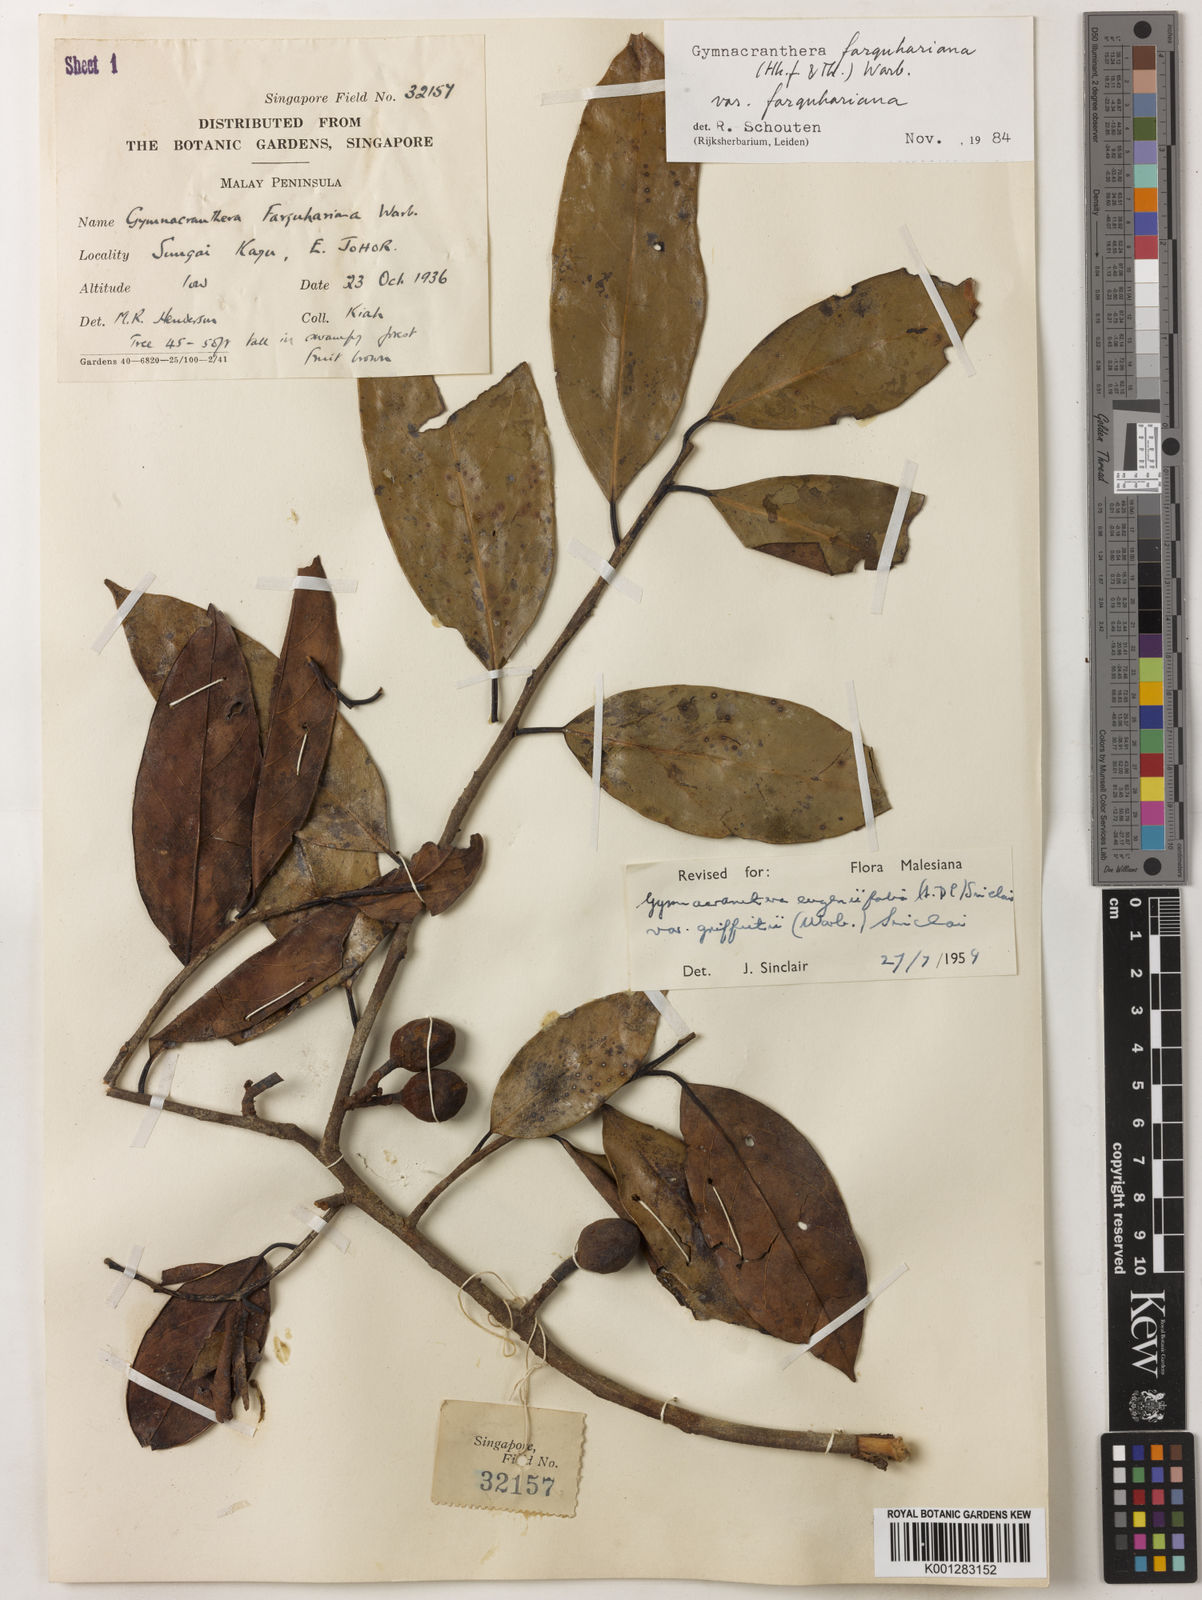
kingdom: Plantae
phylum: Tracheophyta
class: Magnoliopsida
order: Magnoliales
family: Myristicaceae
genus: Gymnacranthera
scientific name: Gymnacranthera farquhariana
